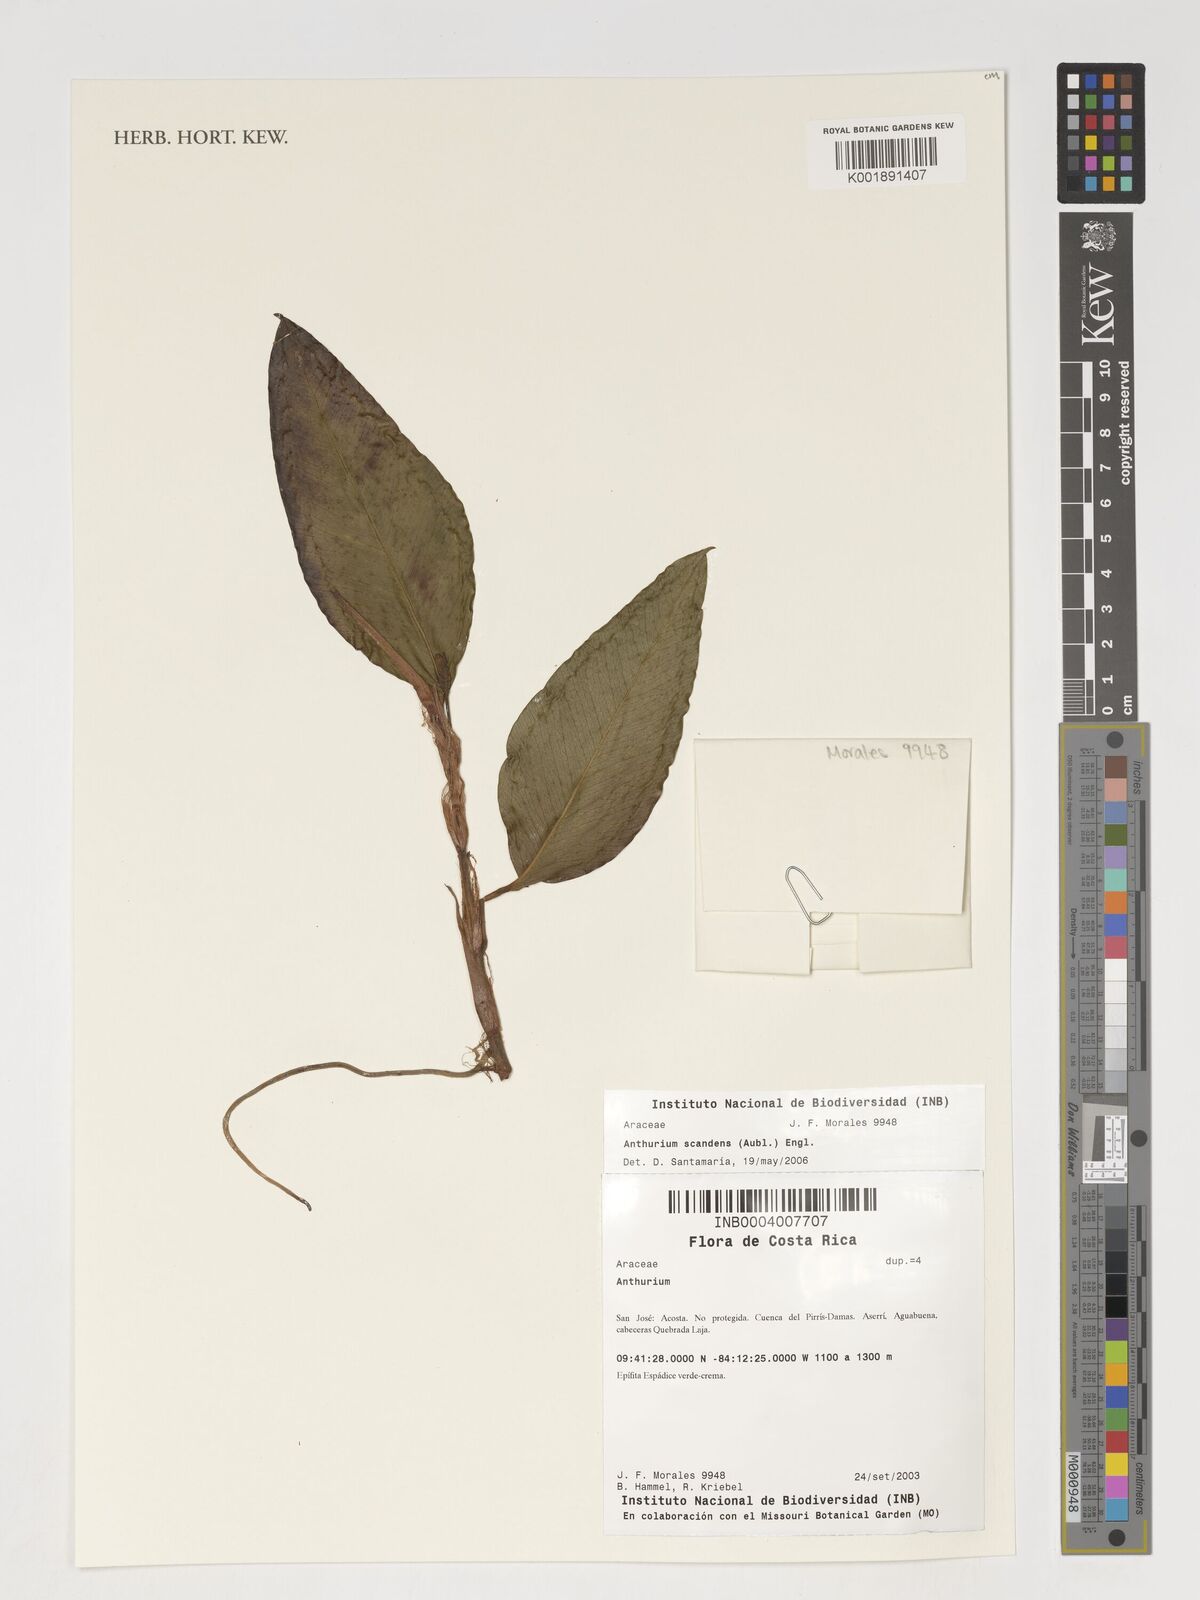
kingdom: Plantae
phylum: Tracheophyta
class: Liliopsida
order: Alismatales
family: Araceae
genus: Anthurium
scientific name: Anthurium scandens
